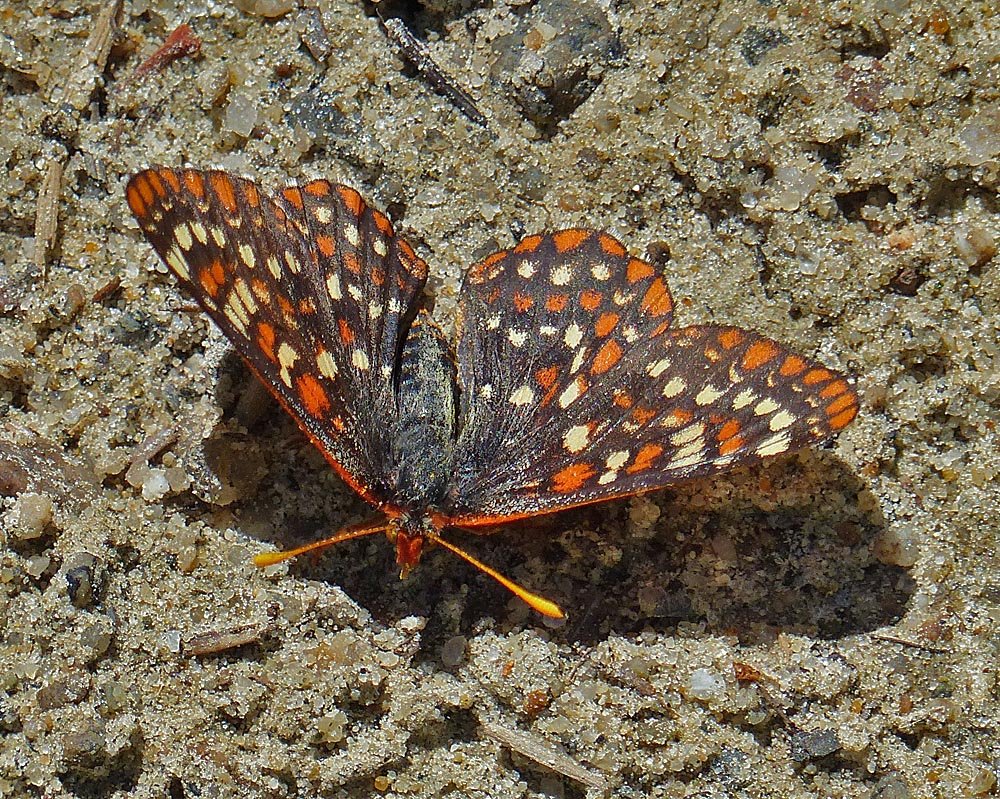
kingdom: Animalia
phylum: Arthropoda
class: Insecta
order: Lepidoptera
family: Nymphalidae
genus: Occidryas
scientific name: Occidryas anicia
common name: Anicia Checkerspot
